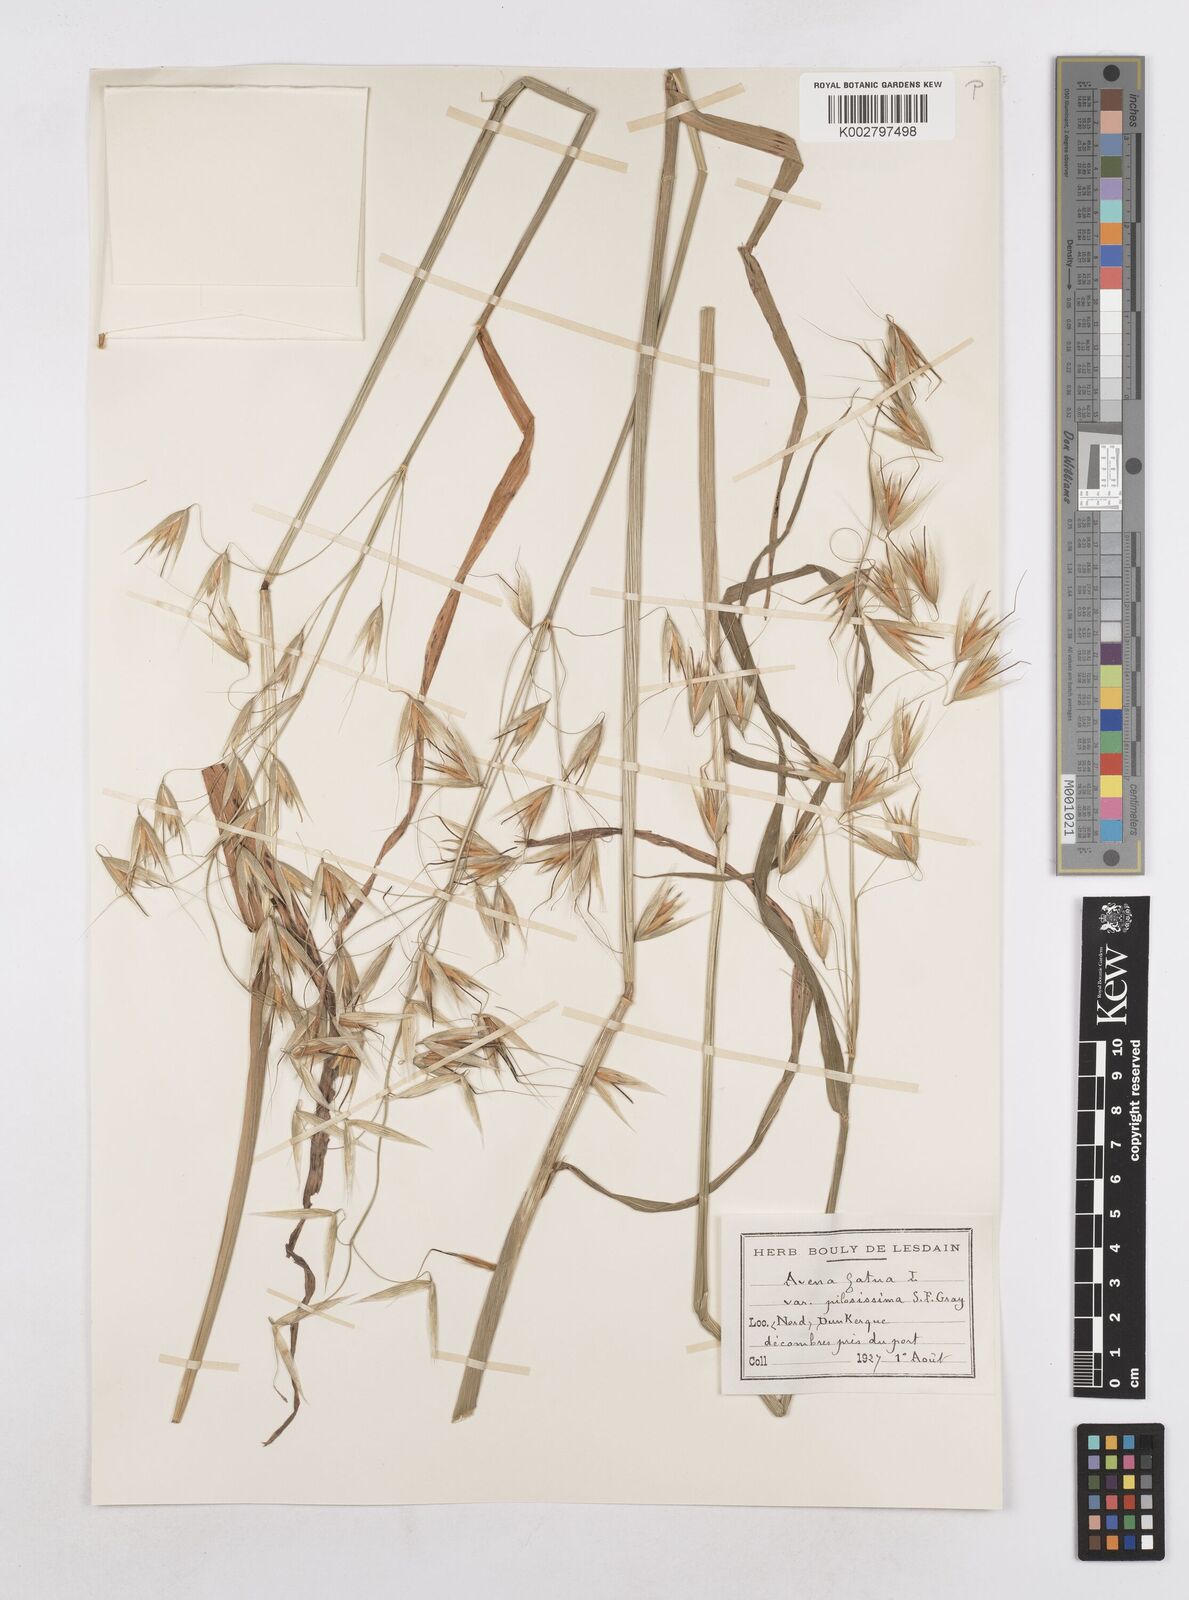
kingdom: Plantae
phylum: Tracheophyta
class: Liliopsida
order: Poales
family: Poaceae
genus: Avena
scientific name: Avena fatua
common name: Wild oat
